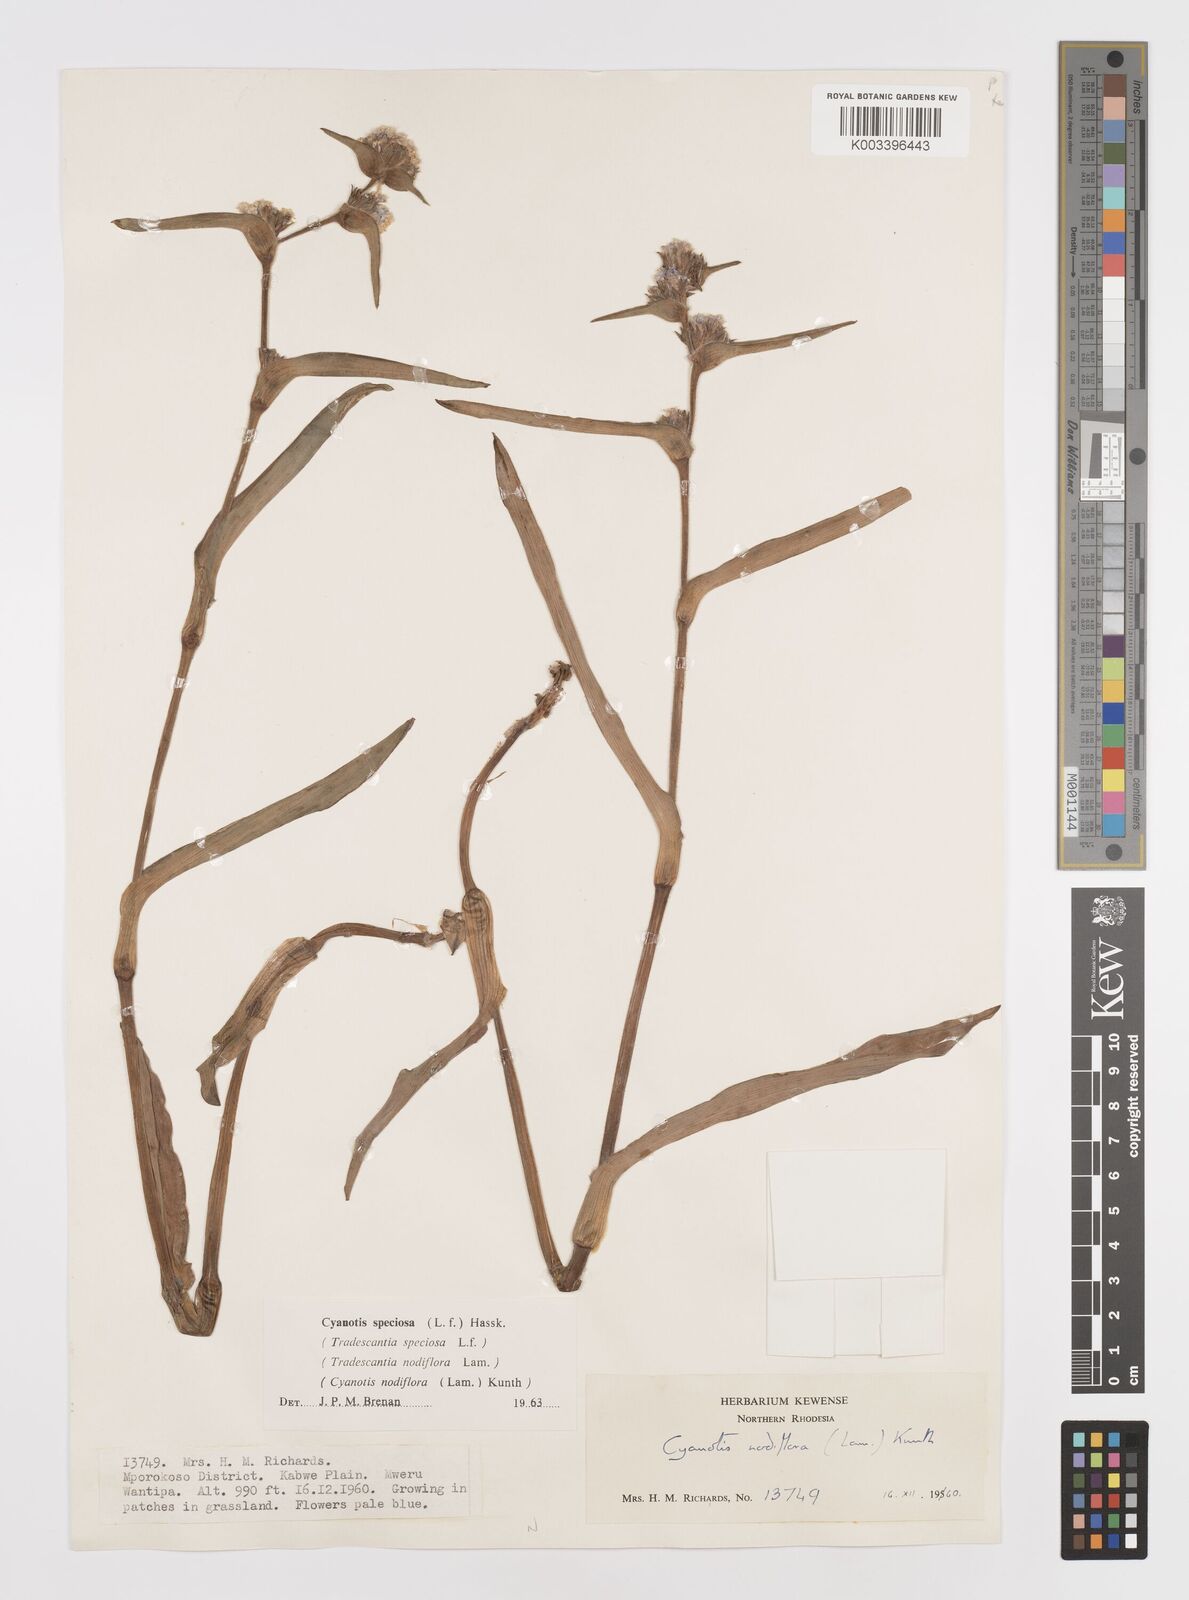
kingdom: Plantae
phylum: Tracheophyta
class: Liliopsida
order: Commelinales
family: Commelinaceae
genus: Cyanotis
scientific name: Cyanotis speciosa
